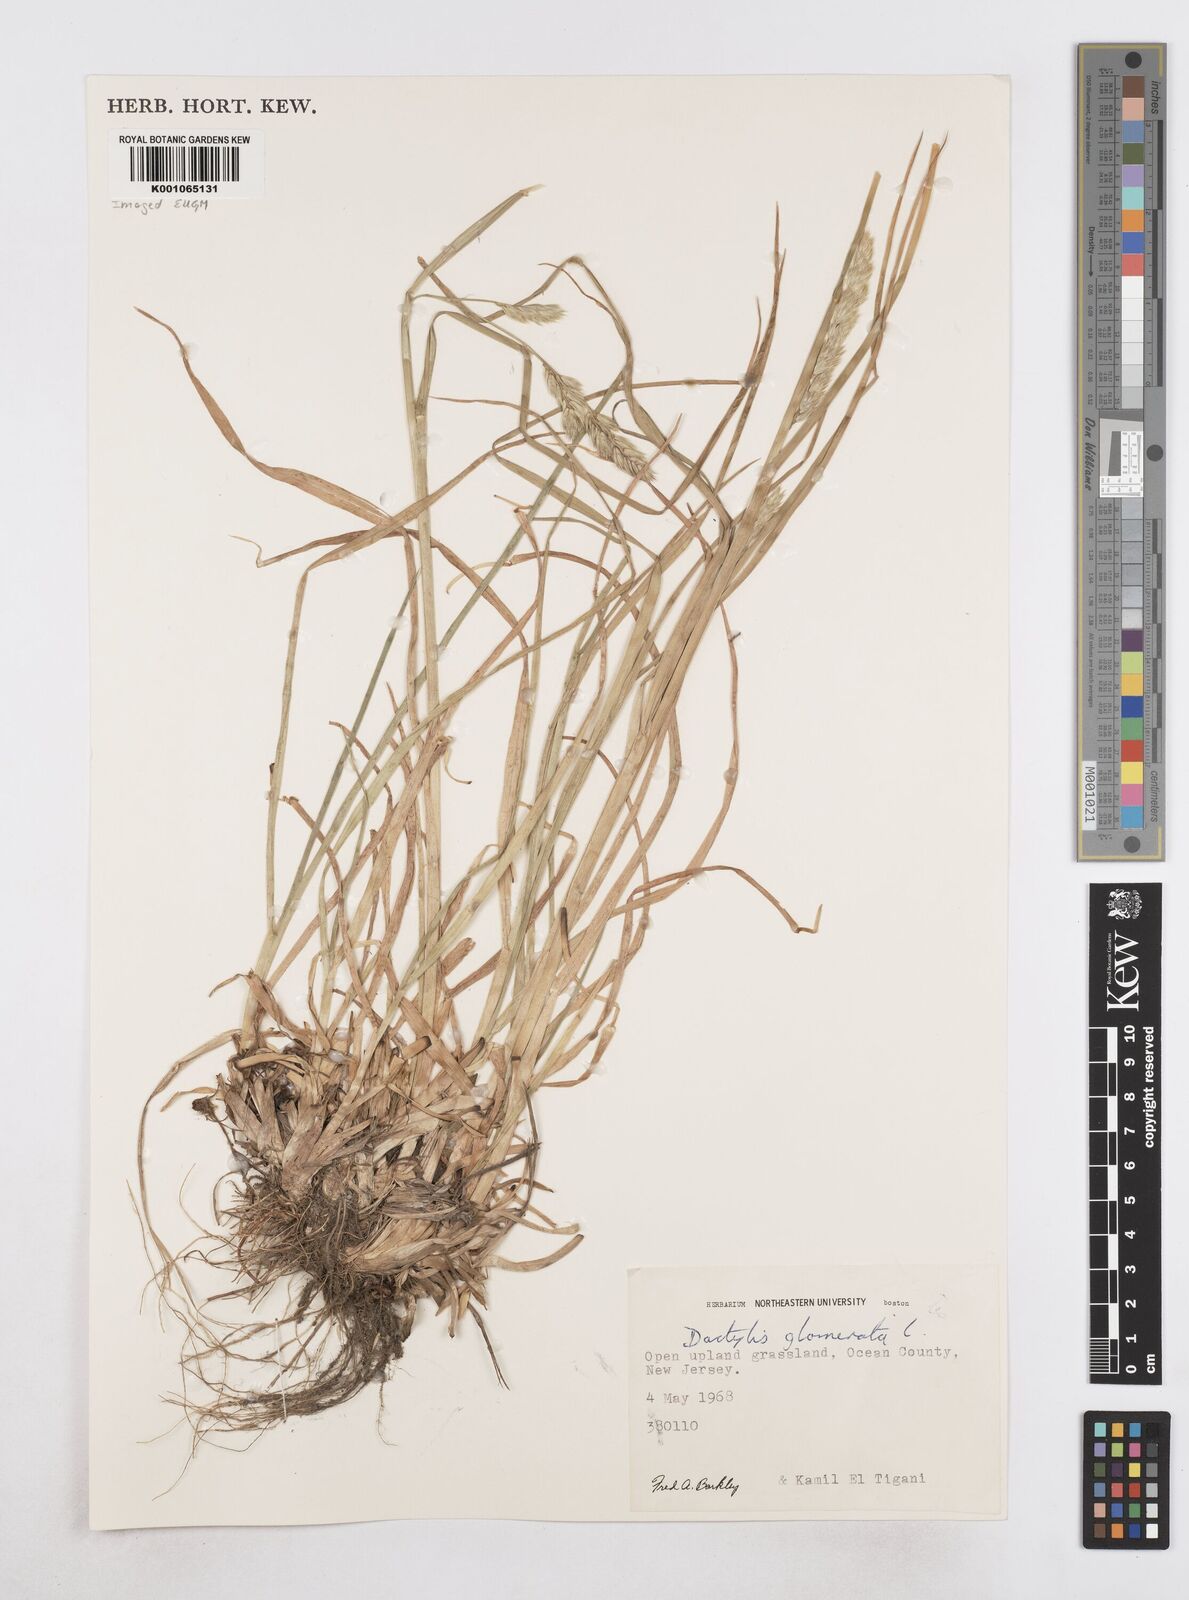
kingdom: Plantae
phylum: Tracheophyta
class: Liliopsida
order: Poales
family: Poaceae
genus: Dactylis
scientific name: Dactylis glomerata
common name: Orchardgrass
